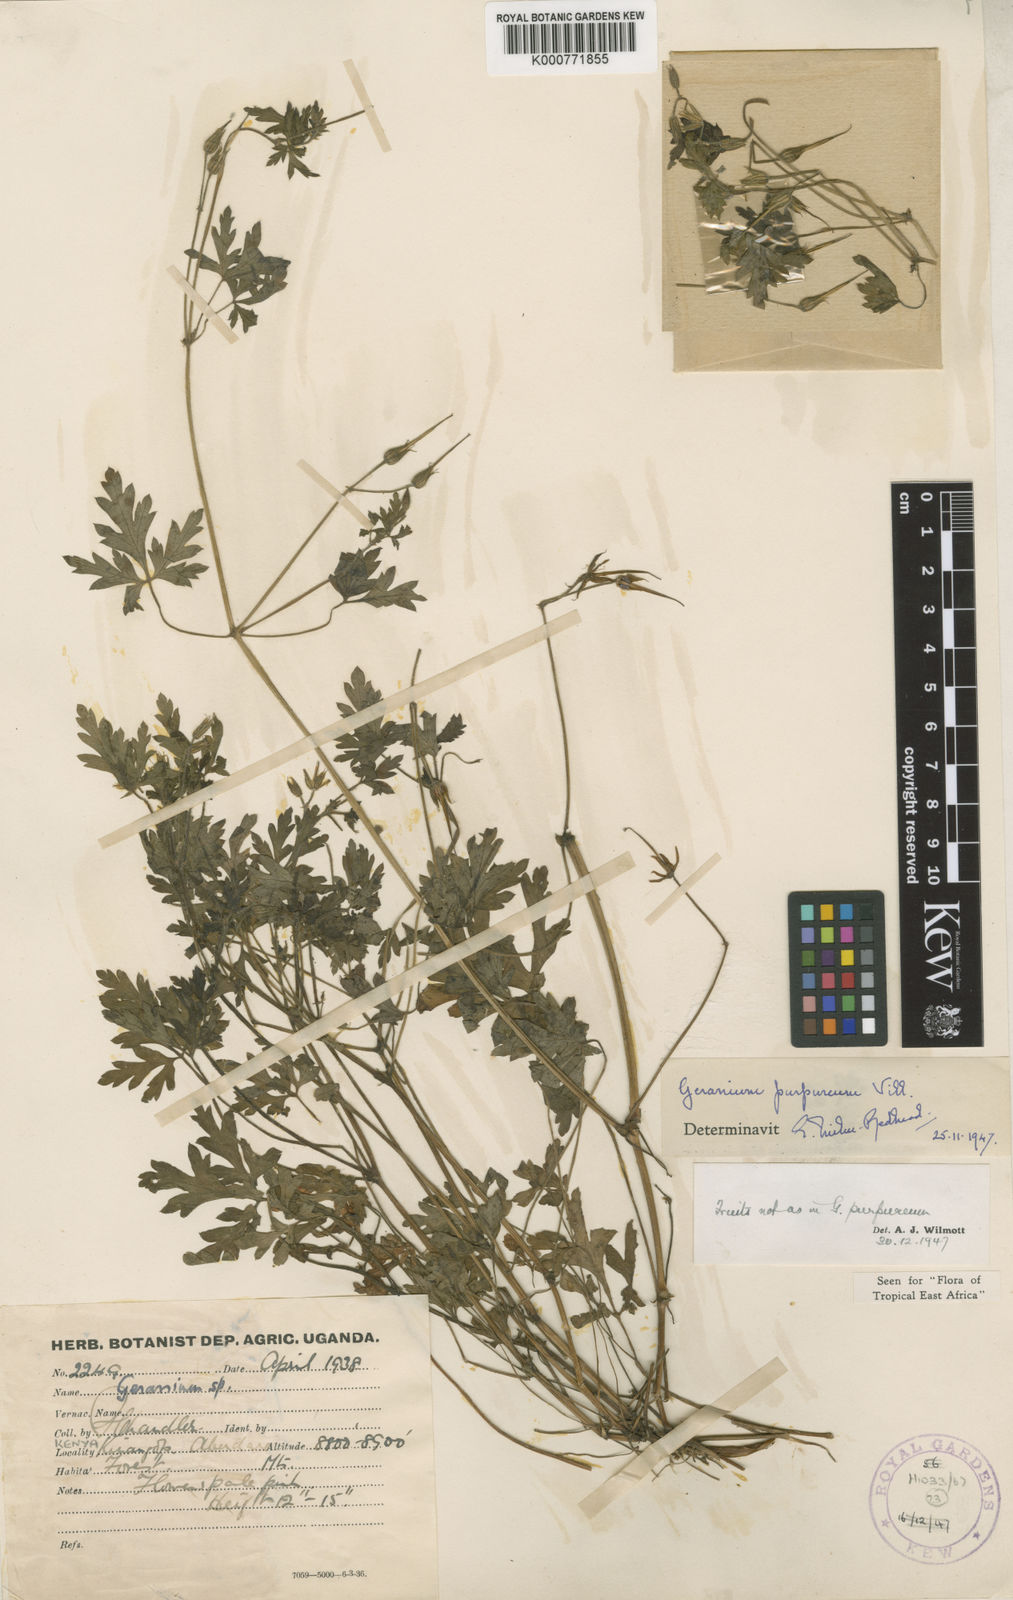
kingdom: Plantae
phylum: Tracheophyta
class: Magnoliopsida
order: Geraniales
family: Geraniaceae
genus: Geranium
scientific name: Geranium purpureum
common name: Little-robin
